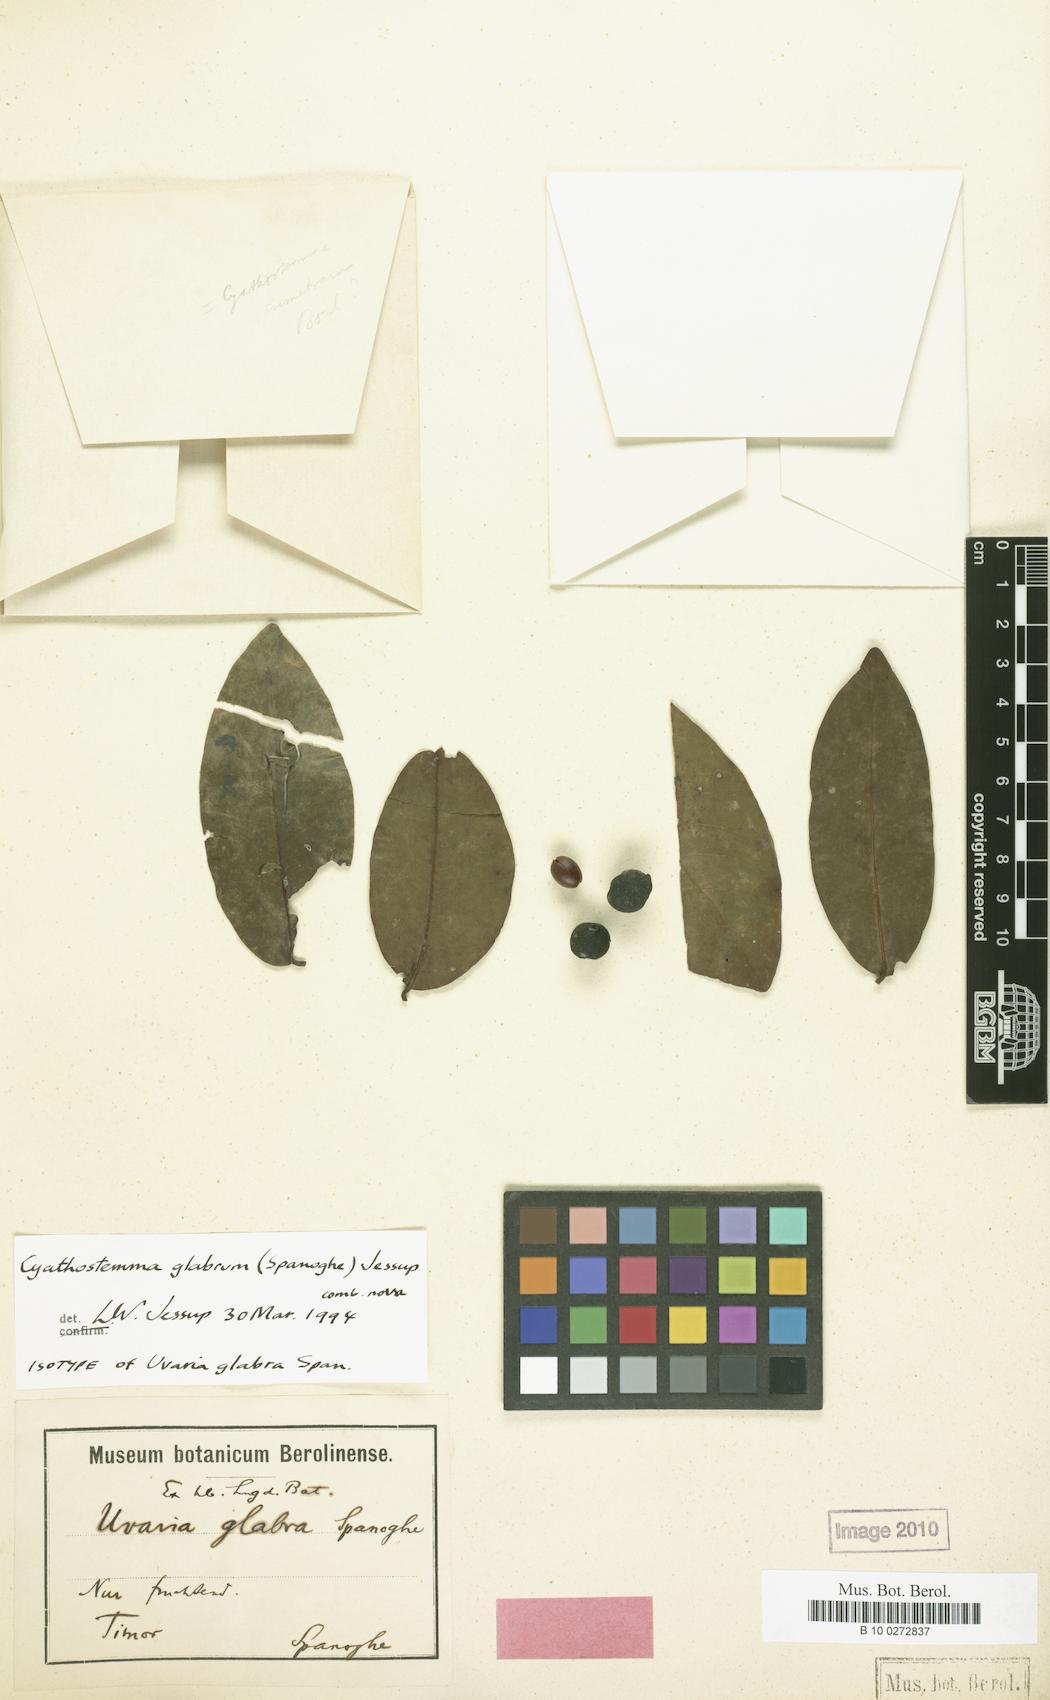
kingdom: Plantae
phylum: Tracheophyta
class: Magnoliopsida
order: Magnoliales
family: Annonaceae
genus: Cyathostemma
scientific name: Cyathostemma glabrum
